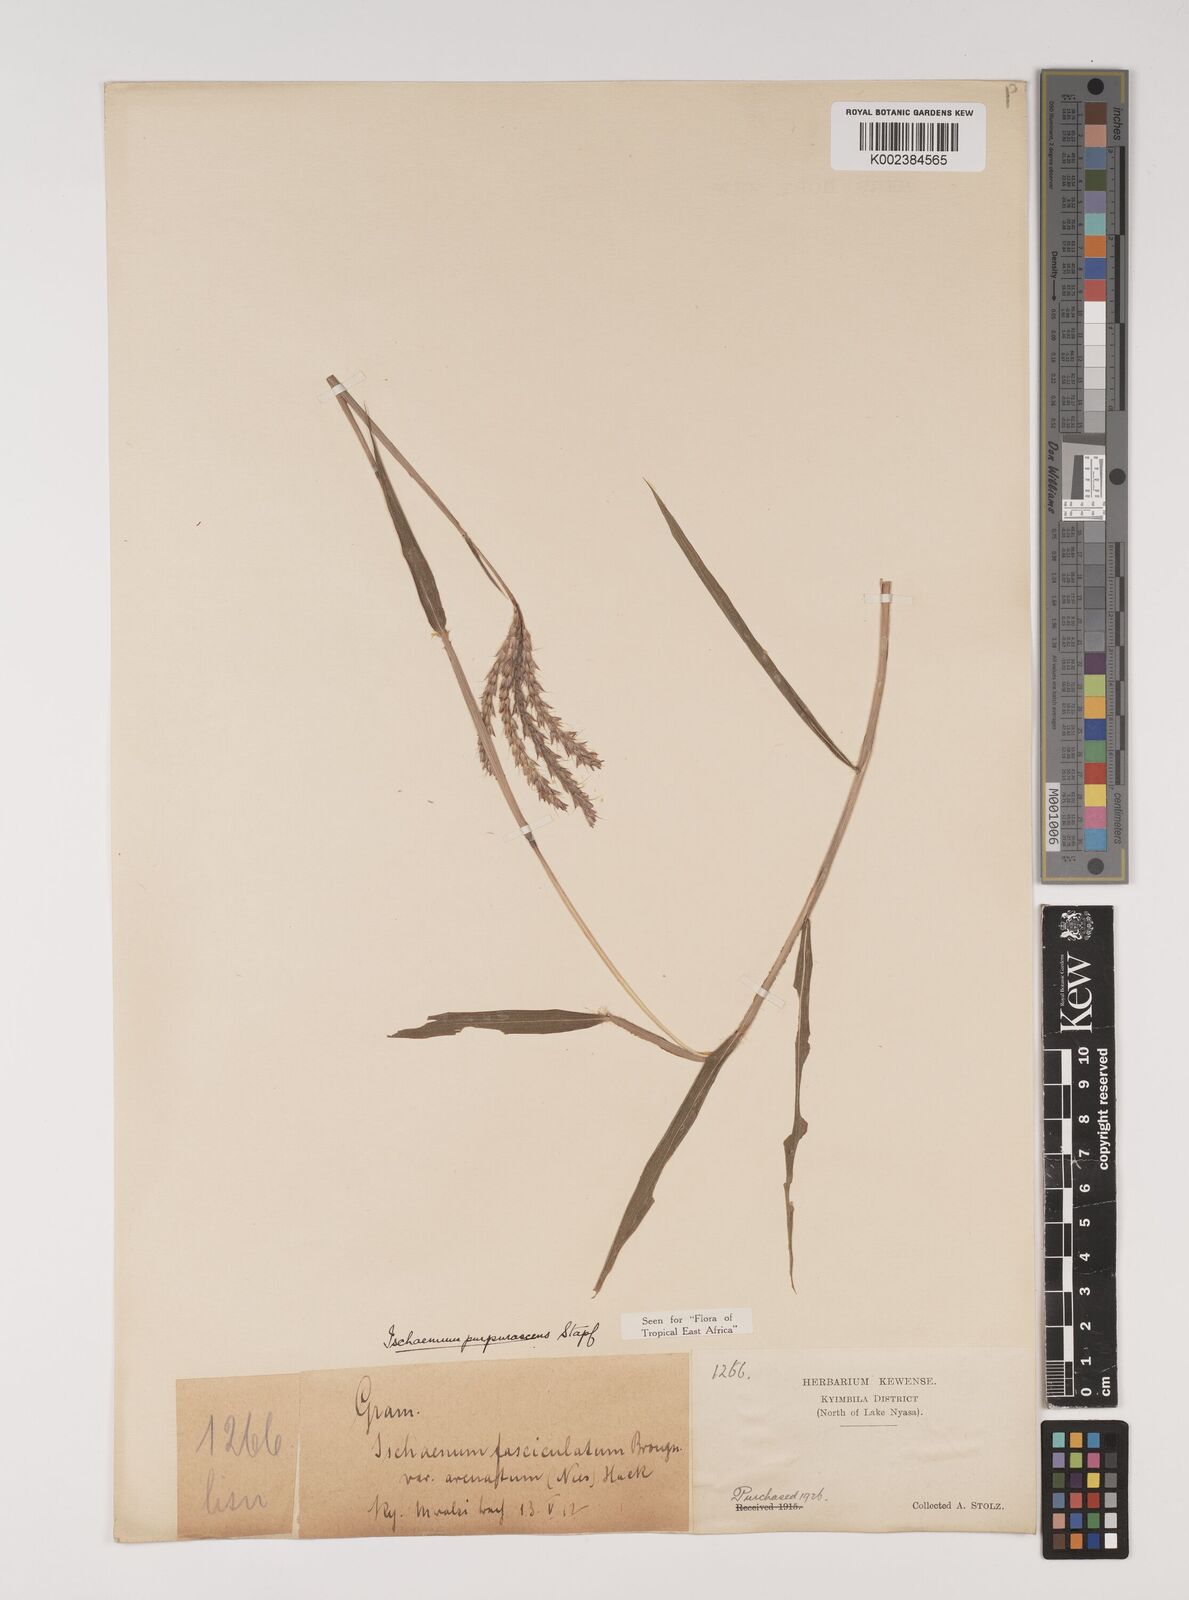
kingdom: Plantae
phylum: Tracheophyta
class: Liliopsida
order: Poales
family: Poaceae
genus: Ischaemum
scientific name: Ischaemum polystachyum
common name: Paddle grass
